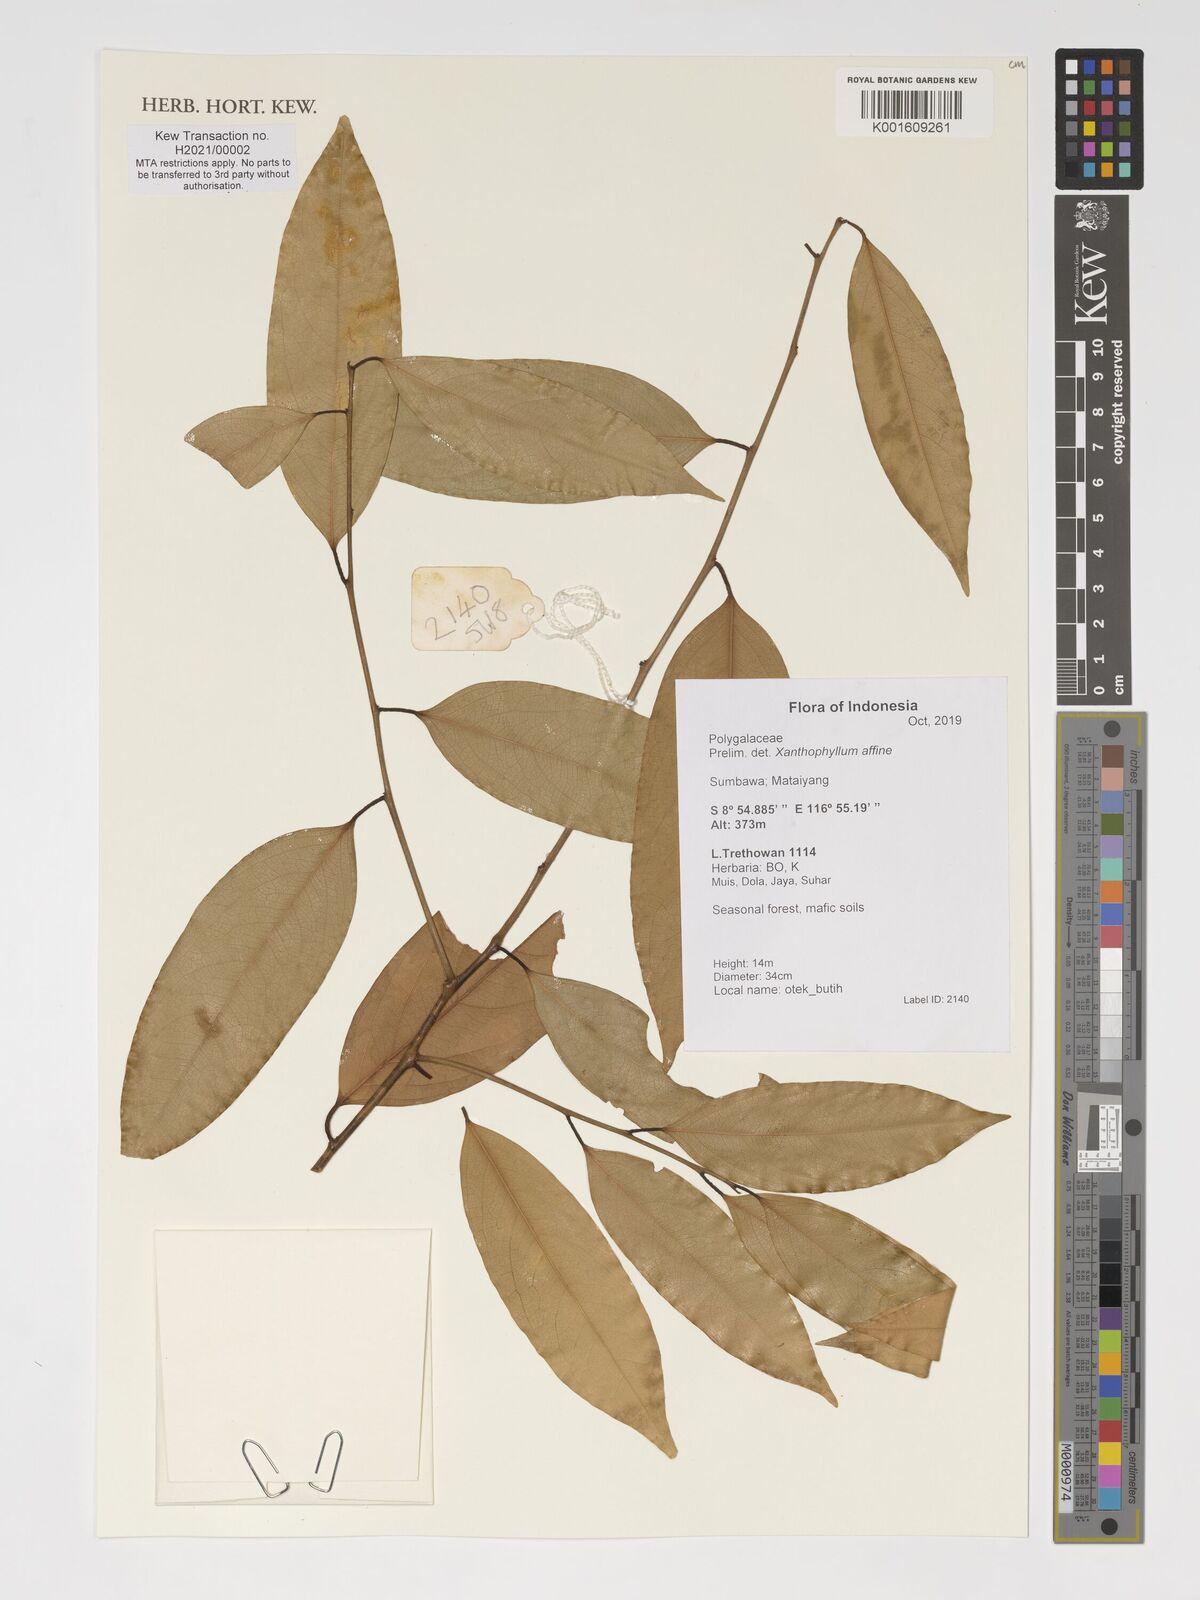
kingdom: Plantae
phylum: Tracheophyta
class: Magnoliopsida
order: Fabales
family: Polygalaceae
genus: Xanthophyllum
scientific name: Xanthophyllum flavescens
